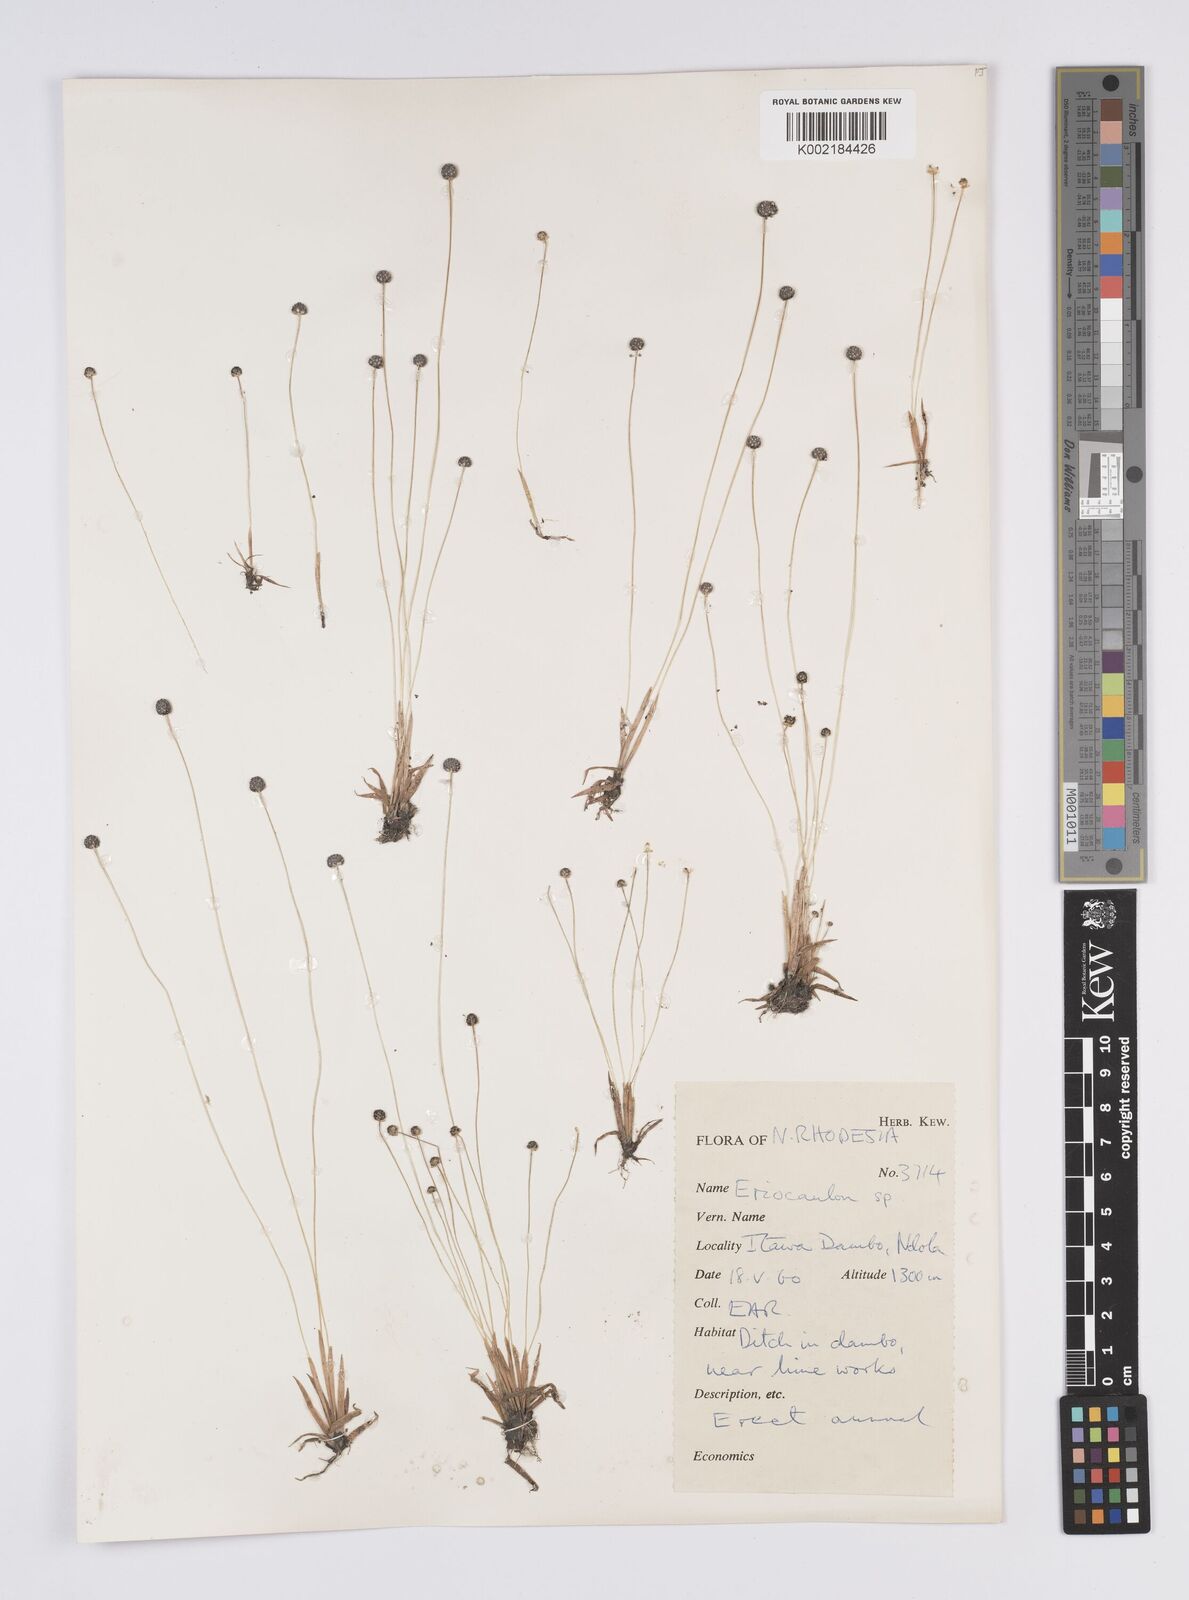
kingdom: Plantae
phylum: Tracheophyta
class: Liliopsida
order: Poales
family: Eriocaulaceae
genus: Eriocaulon
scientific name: Eriocaulon
